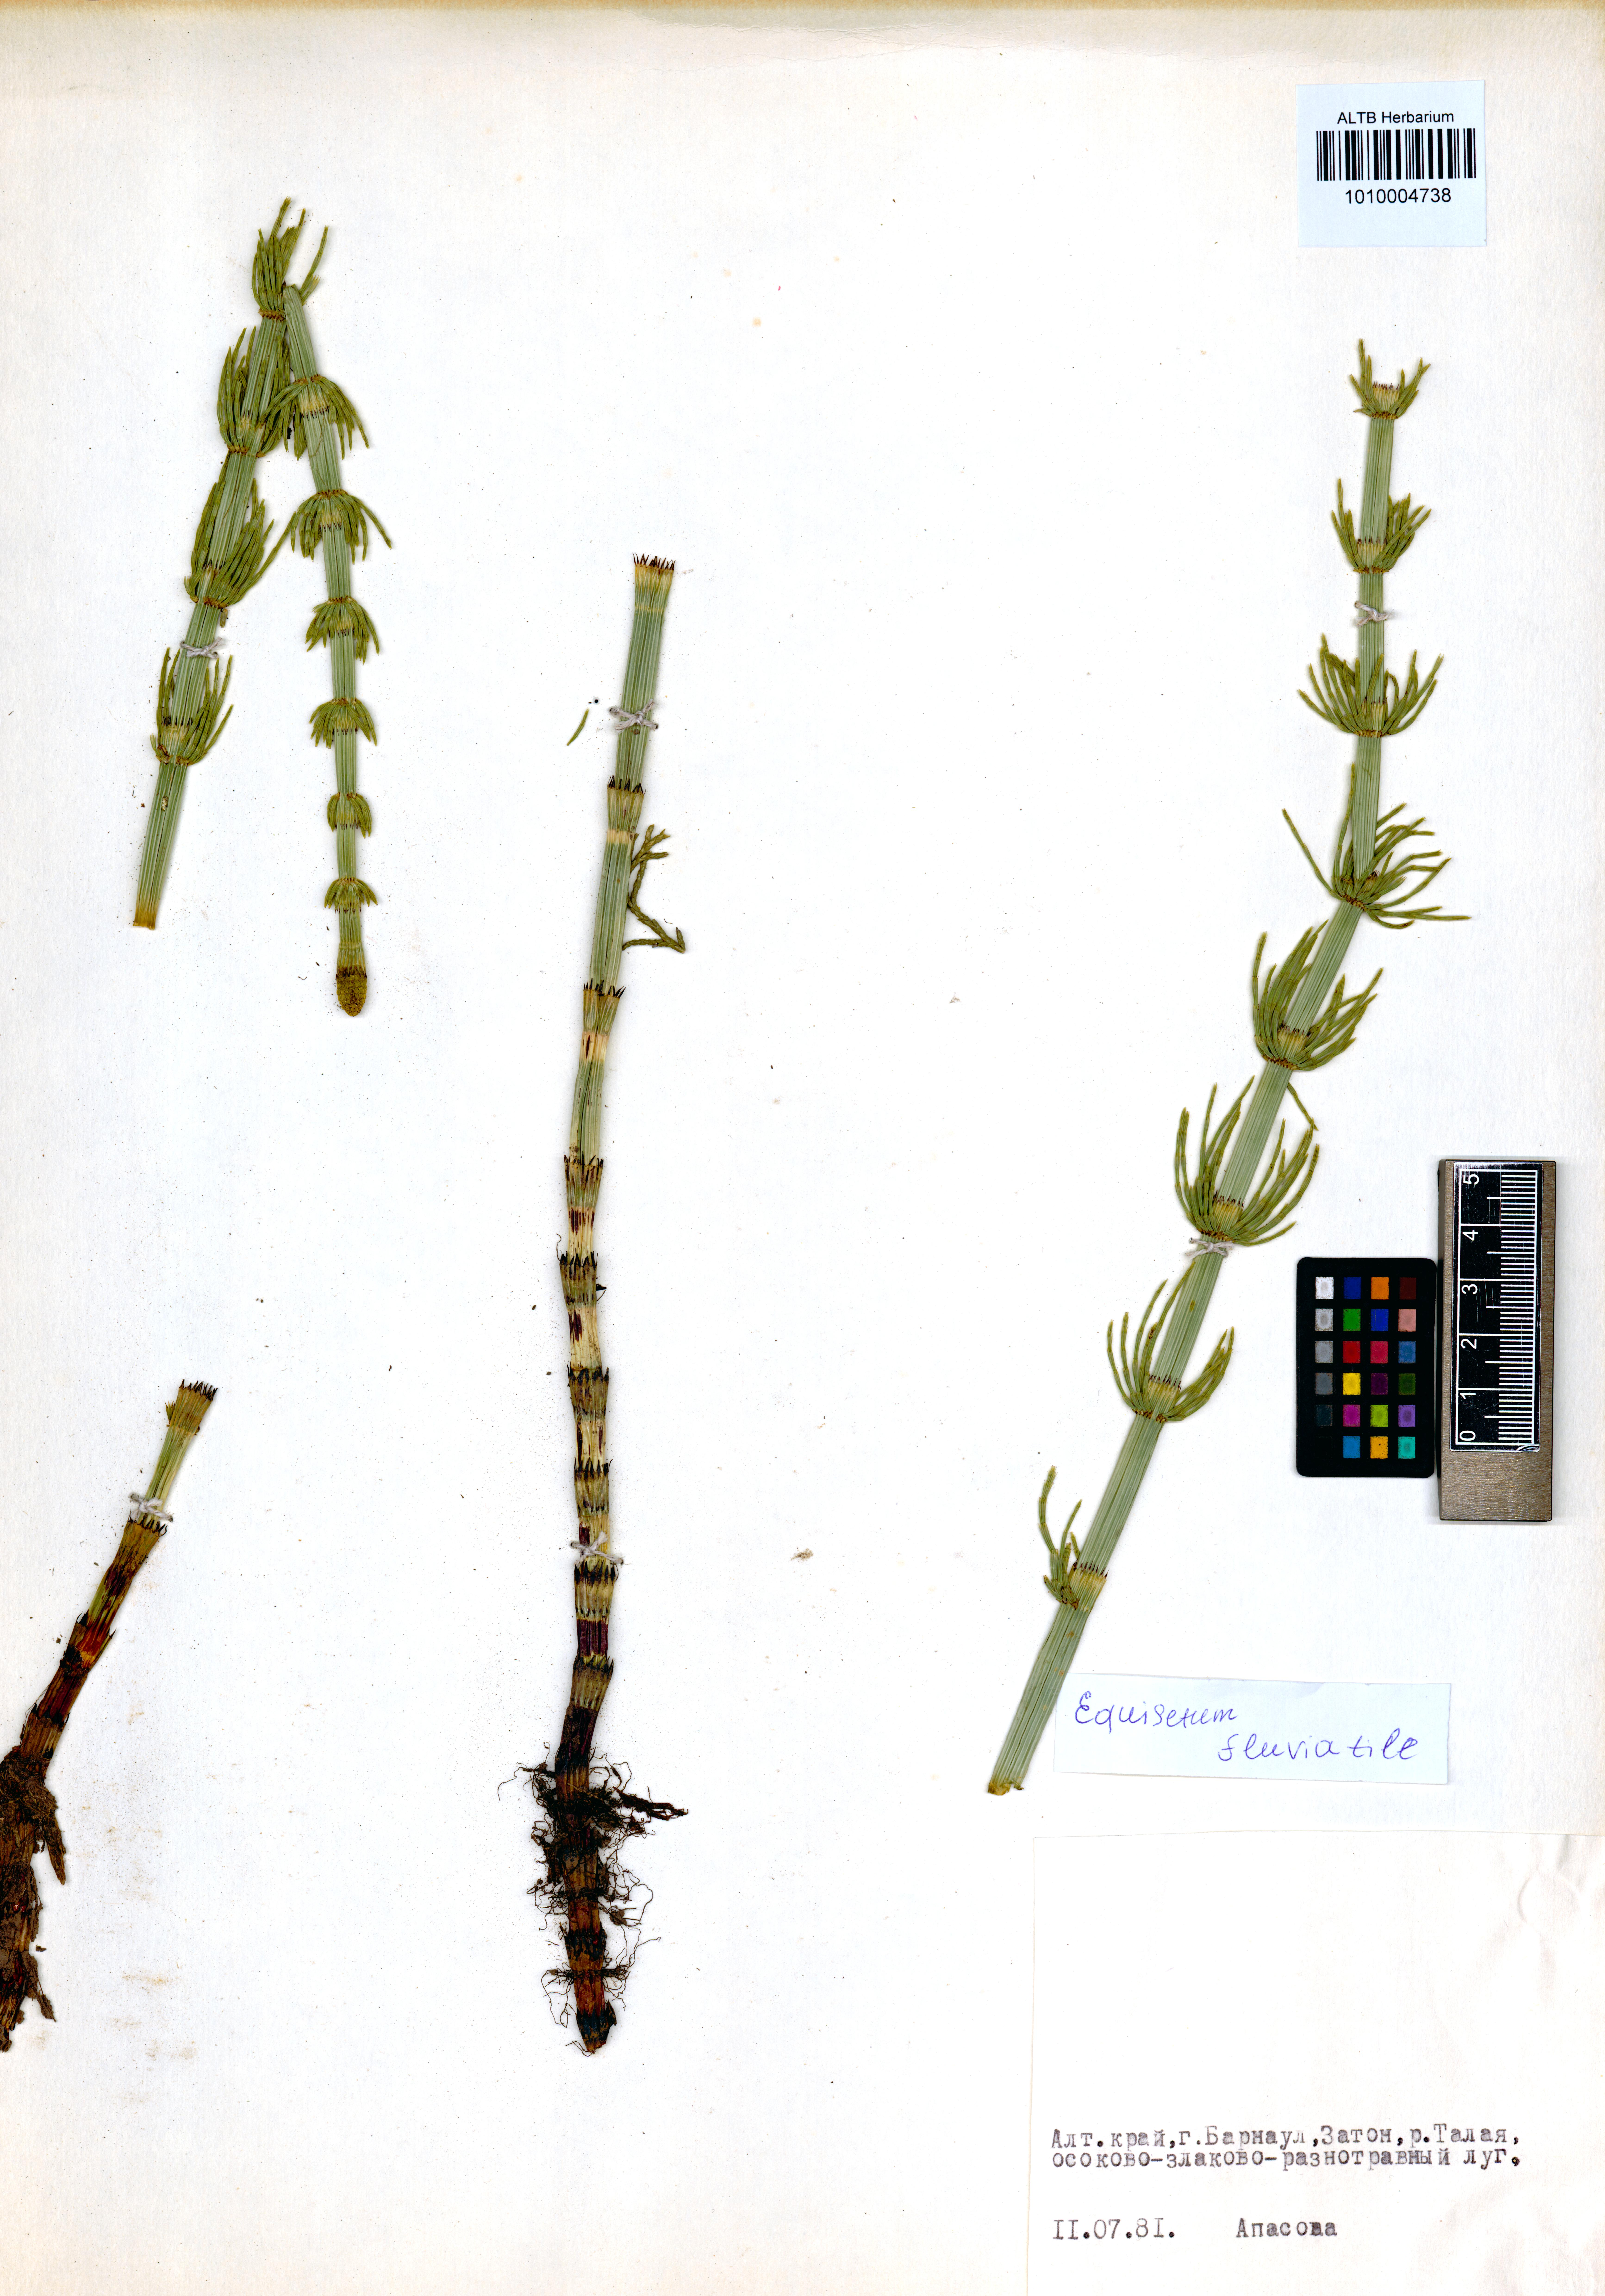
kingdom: Plantae
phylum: Tracheophyta
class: Polypodiopsida
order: Equisetales
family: Equisetaceae
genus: Equisetum
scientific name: Equisetum fluviatile
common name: Water horsetail
